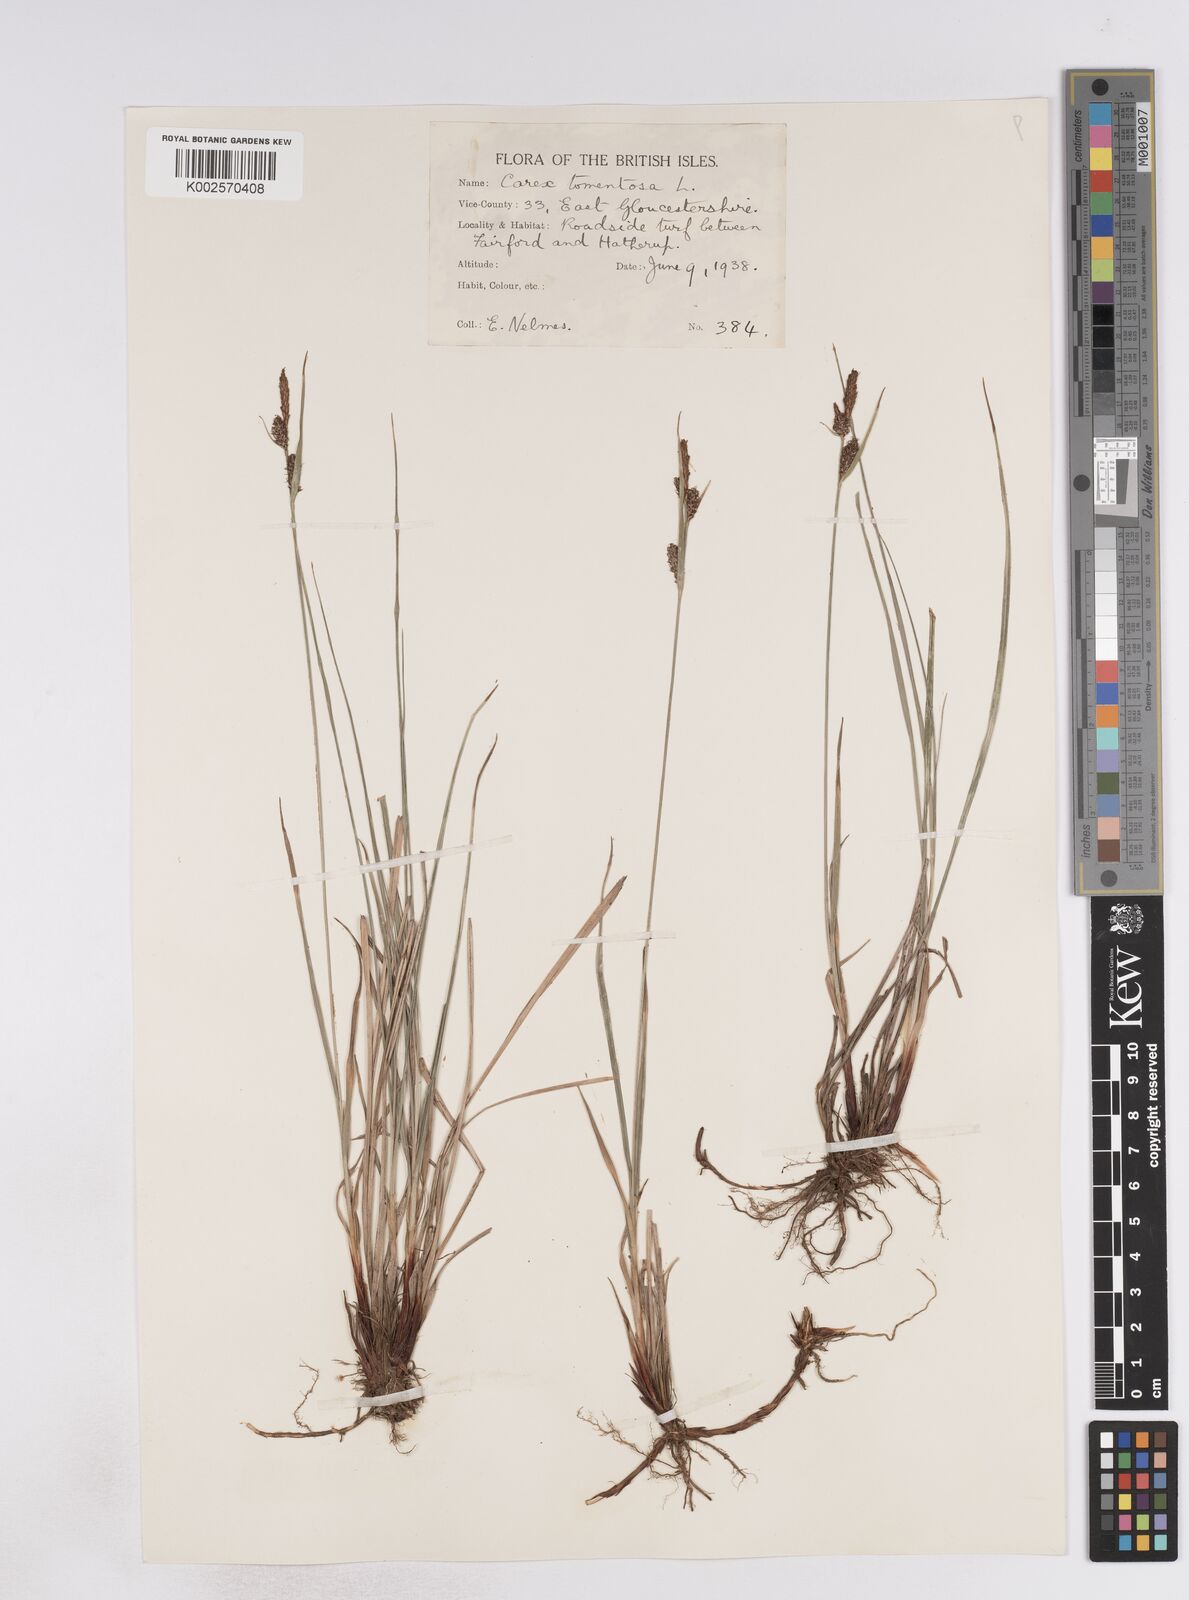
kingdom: Plantae
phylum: Tracheophyta
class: Liliopsida
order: Poales
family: Cyperaceae
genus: Carex
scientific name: Carex montana
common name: Soft-leaved sedge
